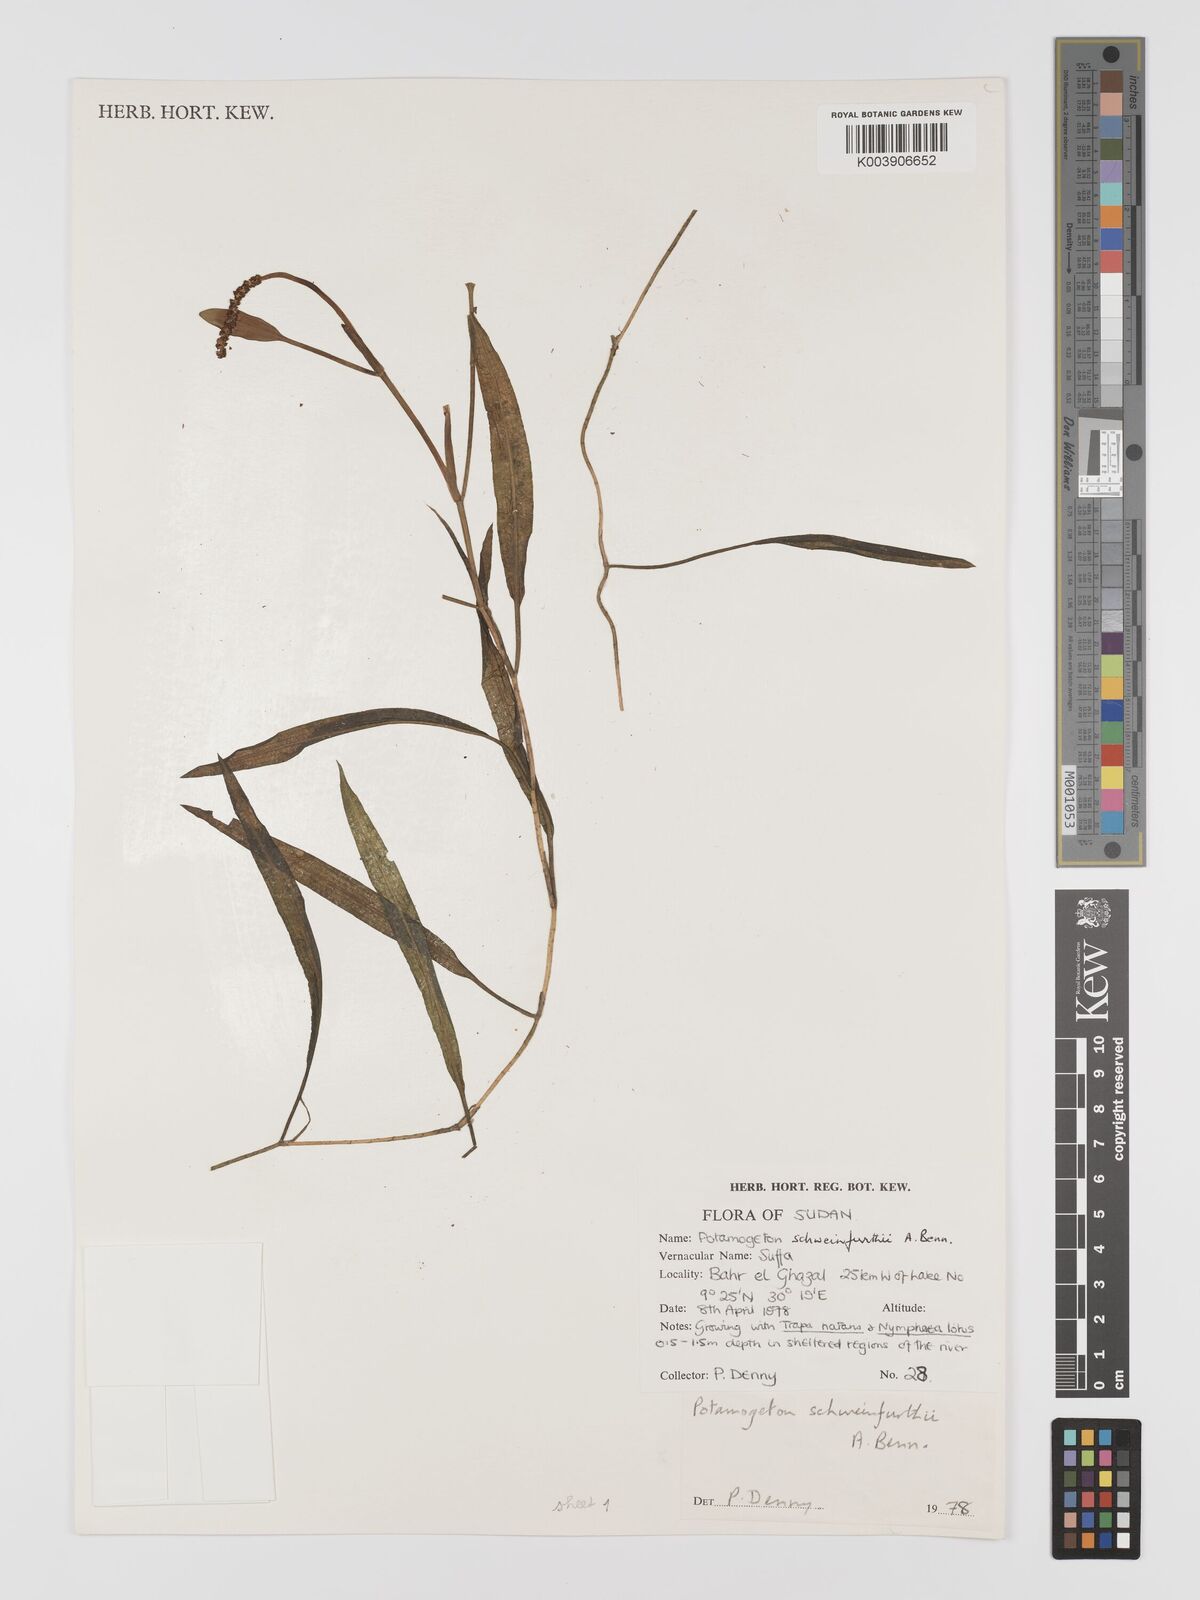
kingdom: Plantae
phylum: Tracheophyta
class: Liliopsida
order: Alismatales
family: Potamogetonaceae
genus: Potamogeton
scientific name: Potamogeton nodosus
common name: Loddon pondweed
